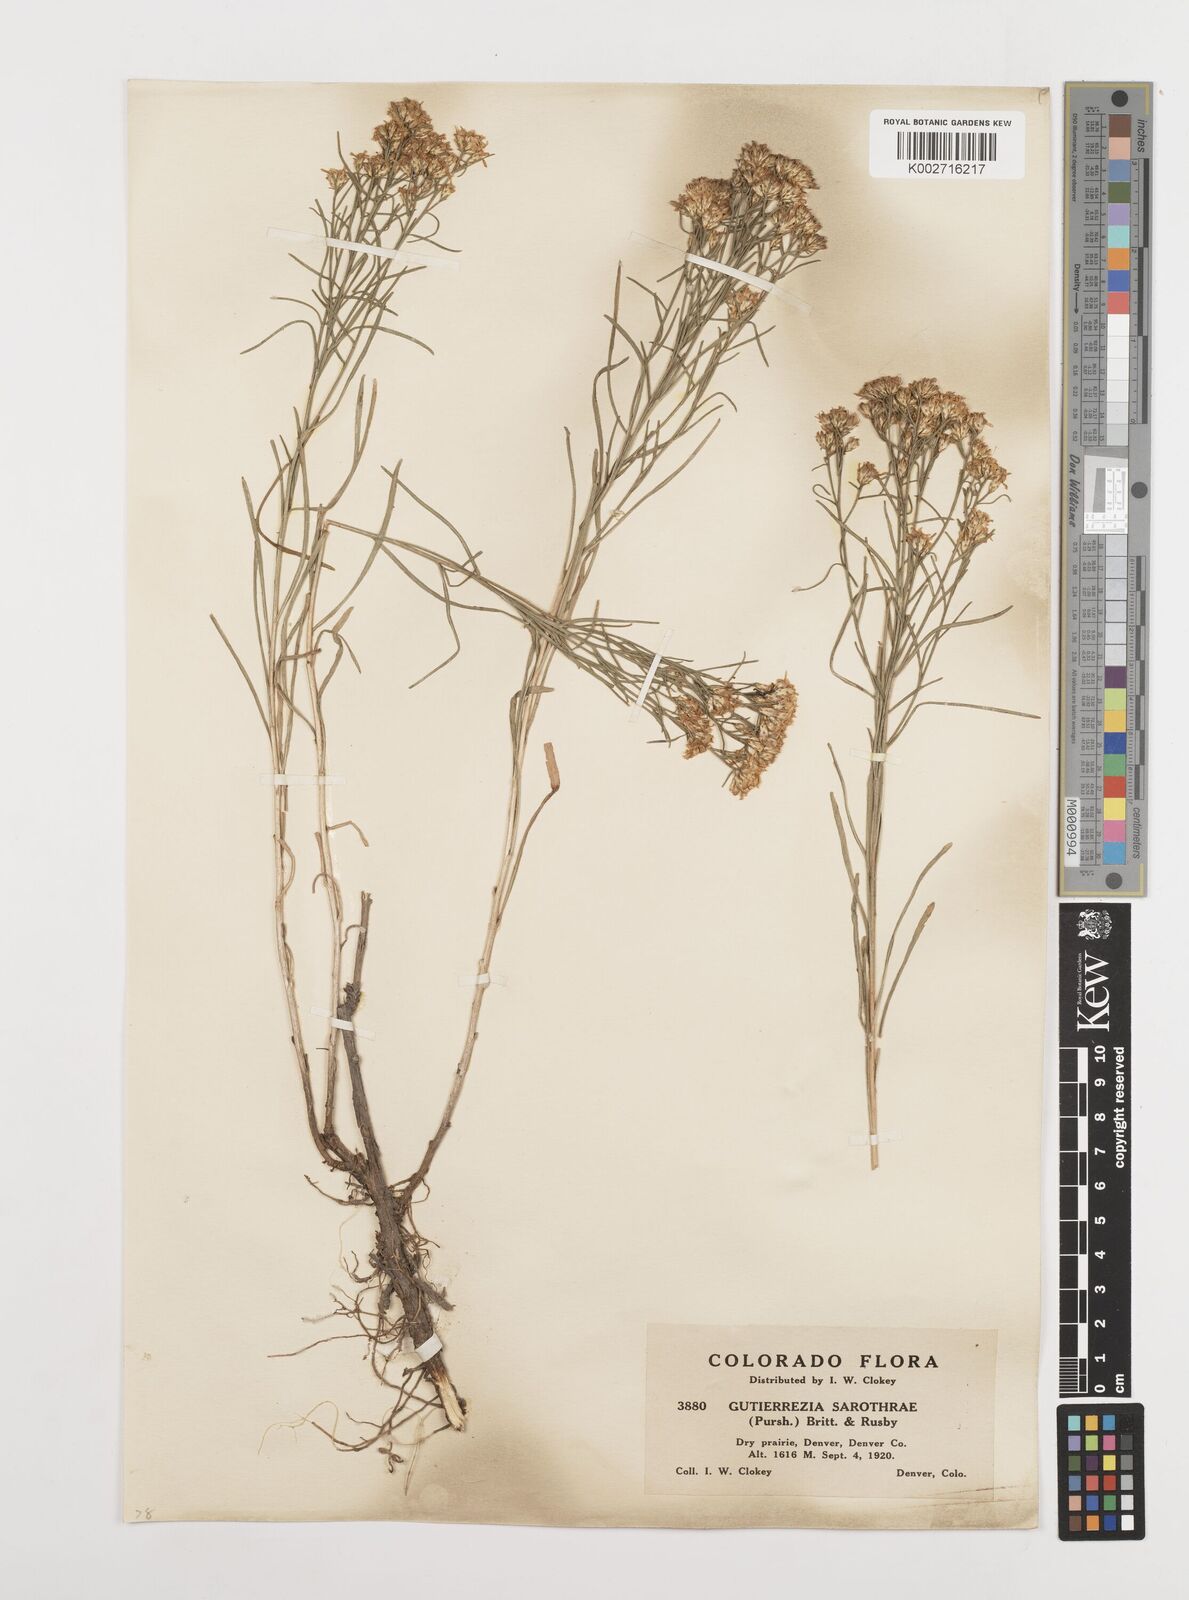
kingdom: Plantae
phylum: Tracheophyta
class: Magnoliopsida
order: Asterales
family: Asteraceae
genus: Gutierrezia
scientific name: Gutierrezia sarothrae
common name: Broom snakeweed
